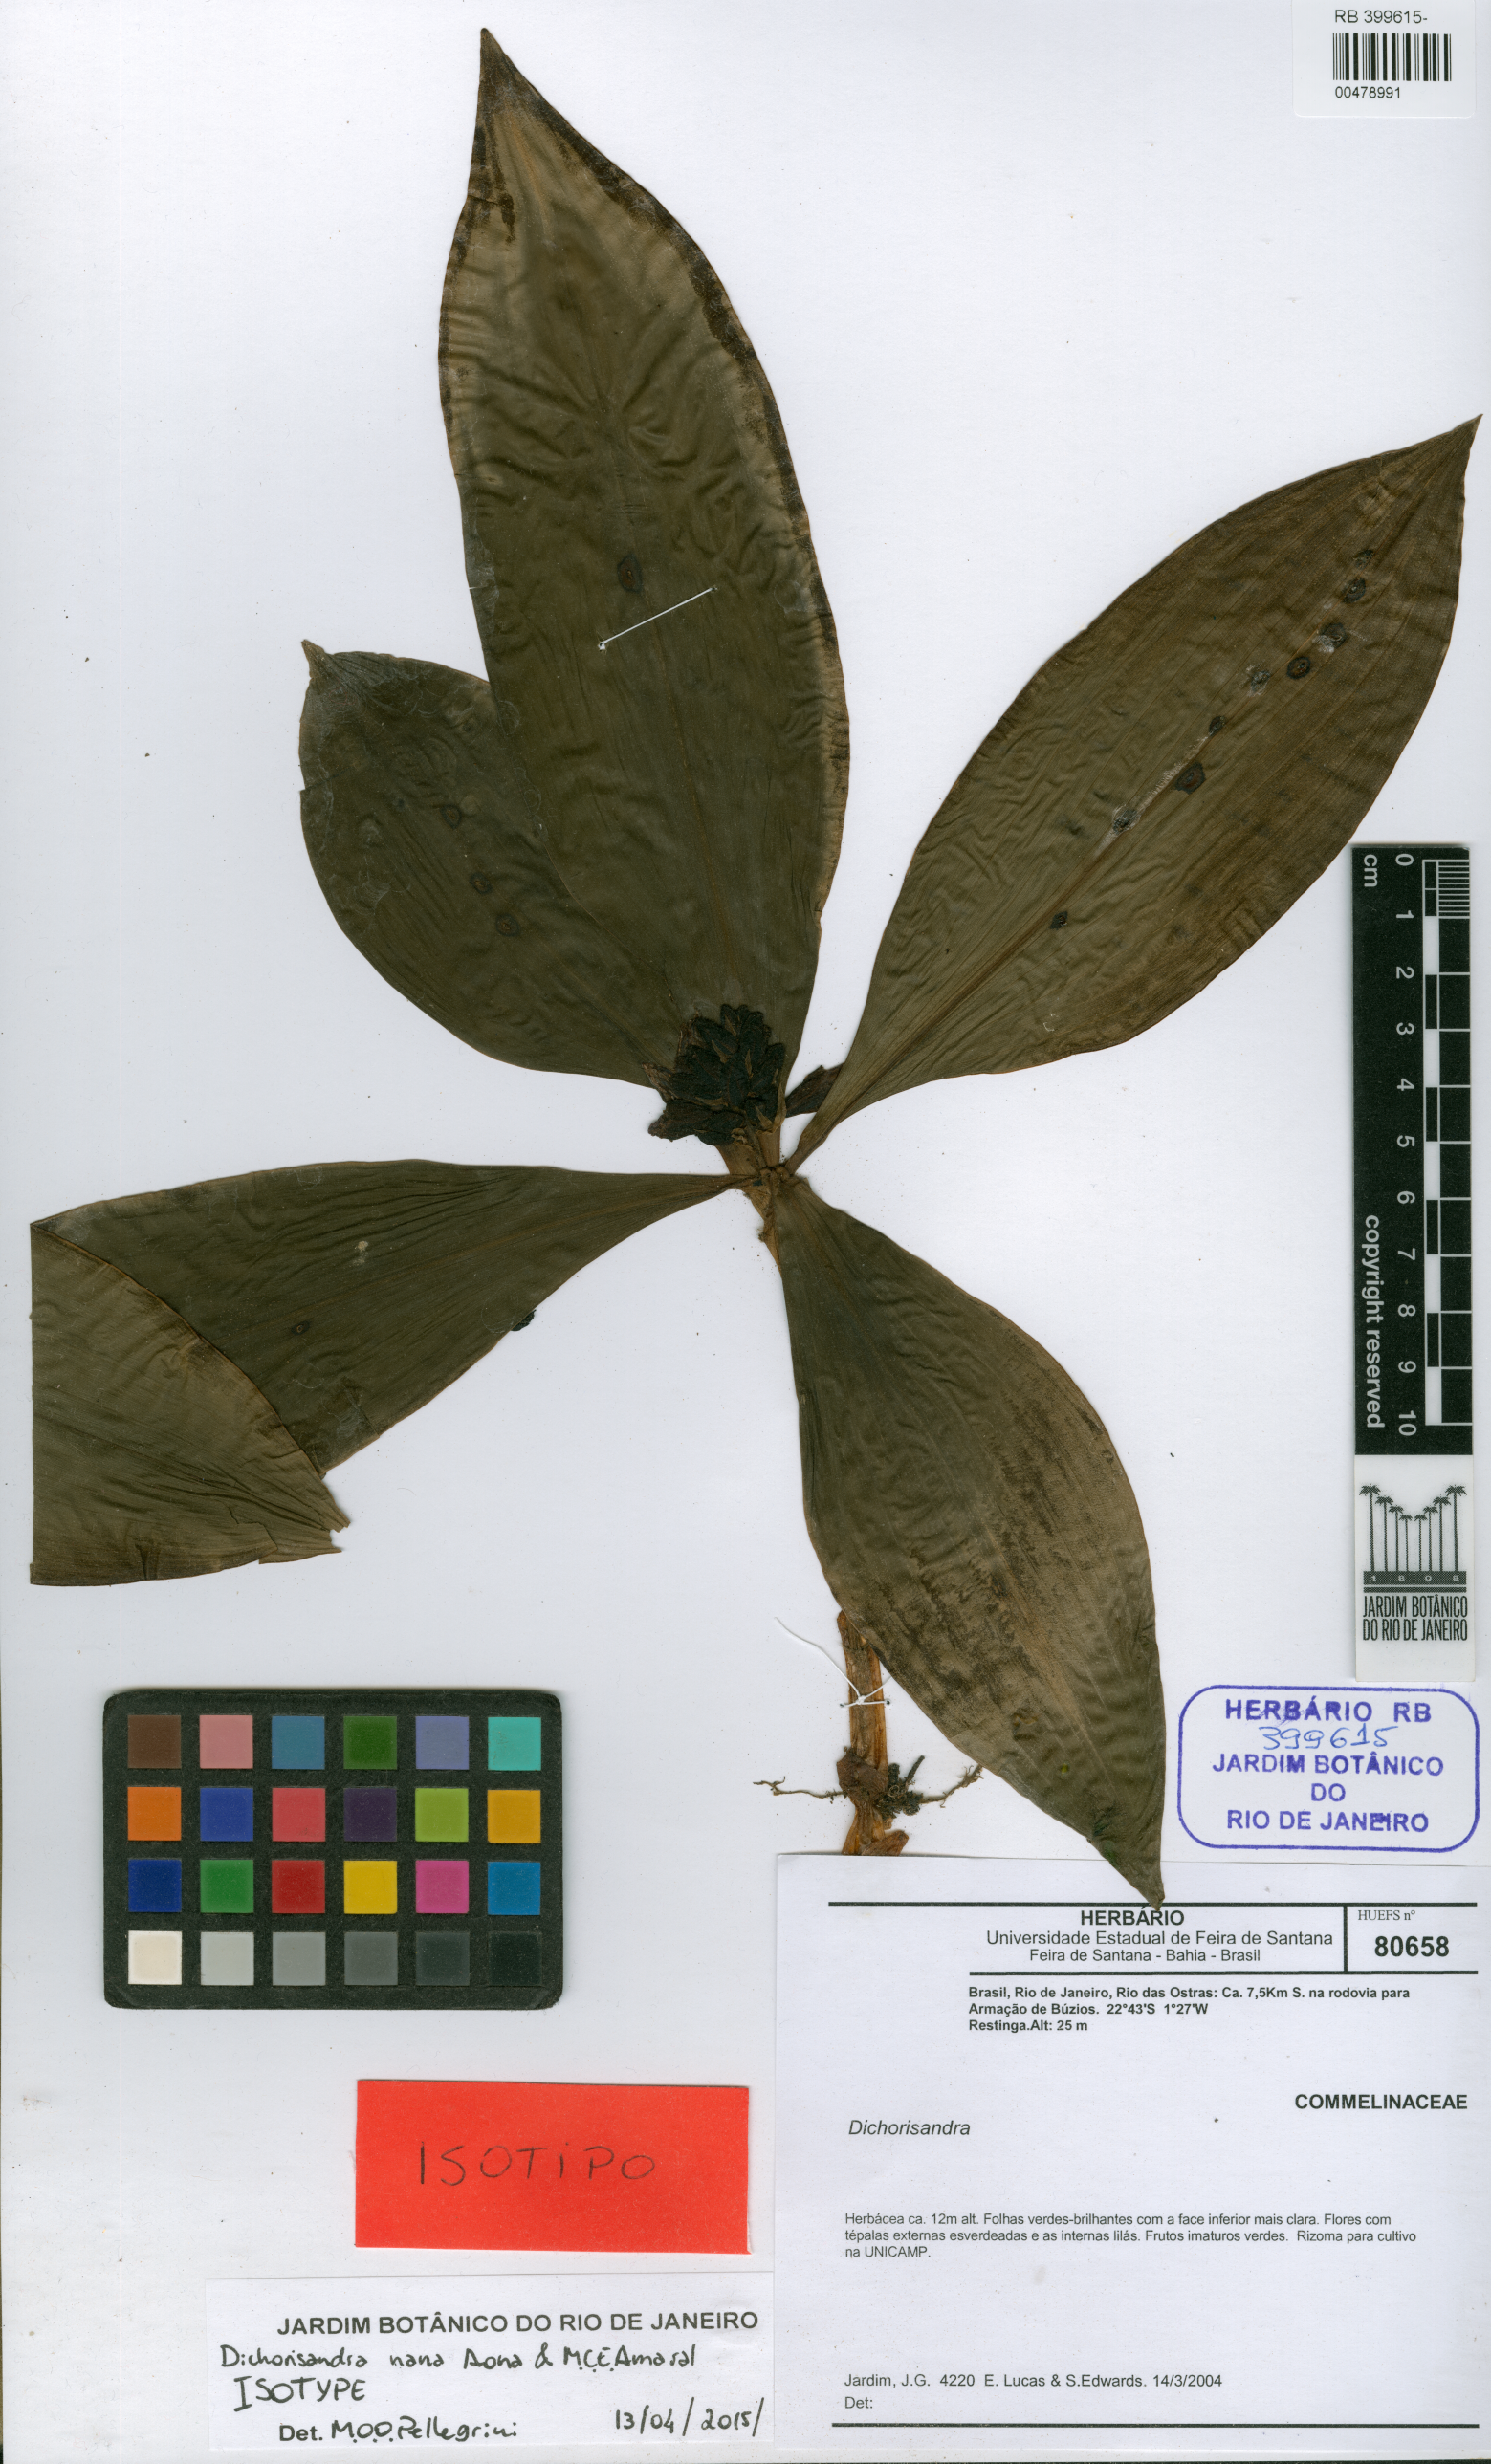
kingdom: Plantae
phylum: Tracheophyta
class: Liliopsida
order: Commelinales
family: Commelinaceae
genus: Dichorisandra
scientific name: Dichorisandra nana
